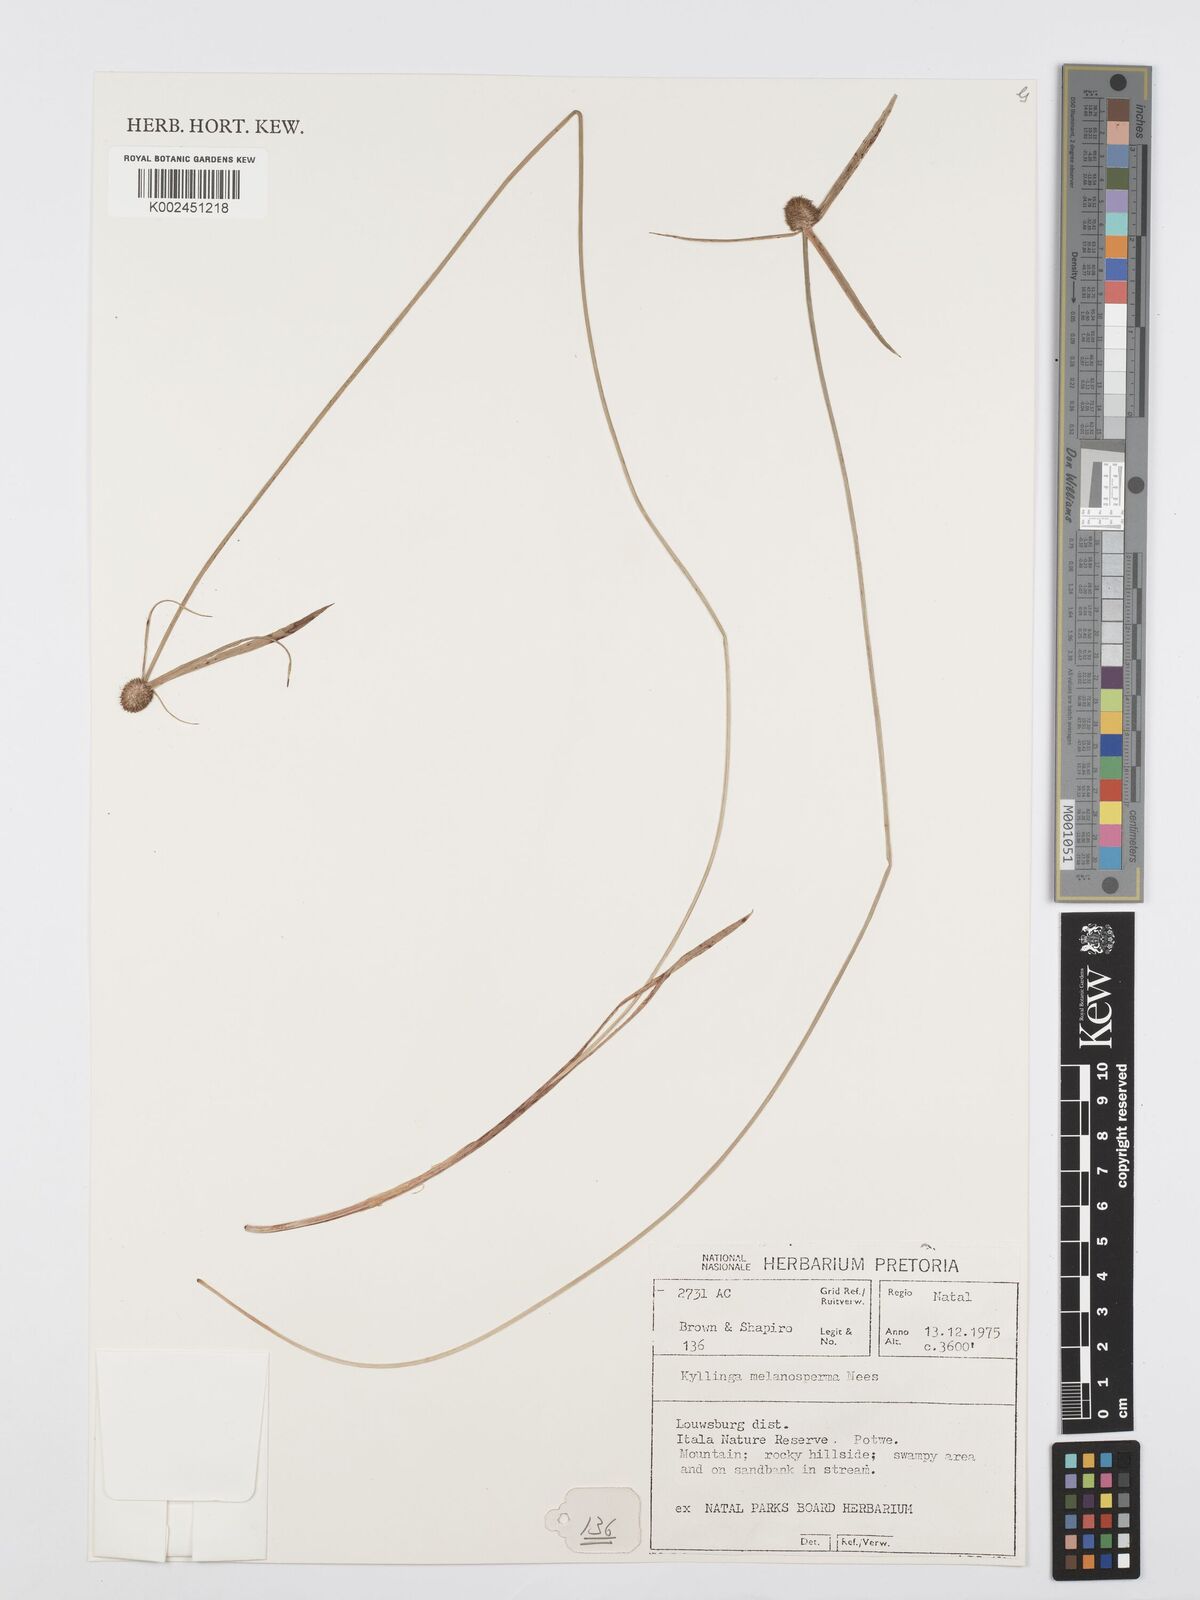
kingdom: Plantae
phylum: Tracheophyta
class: Liliopsida
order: Poales
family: Cyperaceae
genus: Cyperus
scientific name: Cyperus melanospermus
